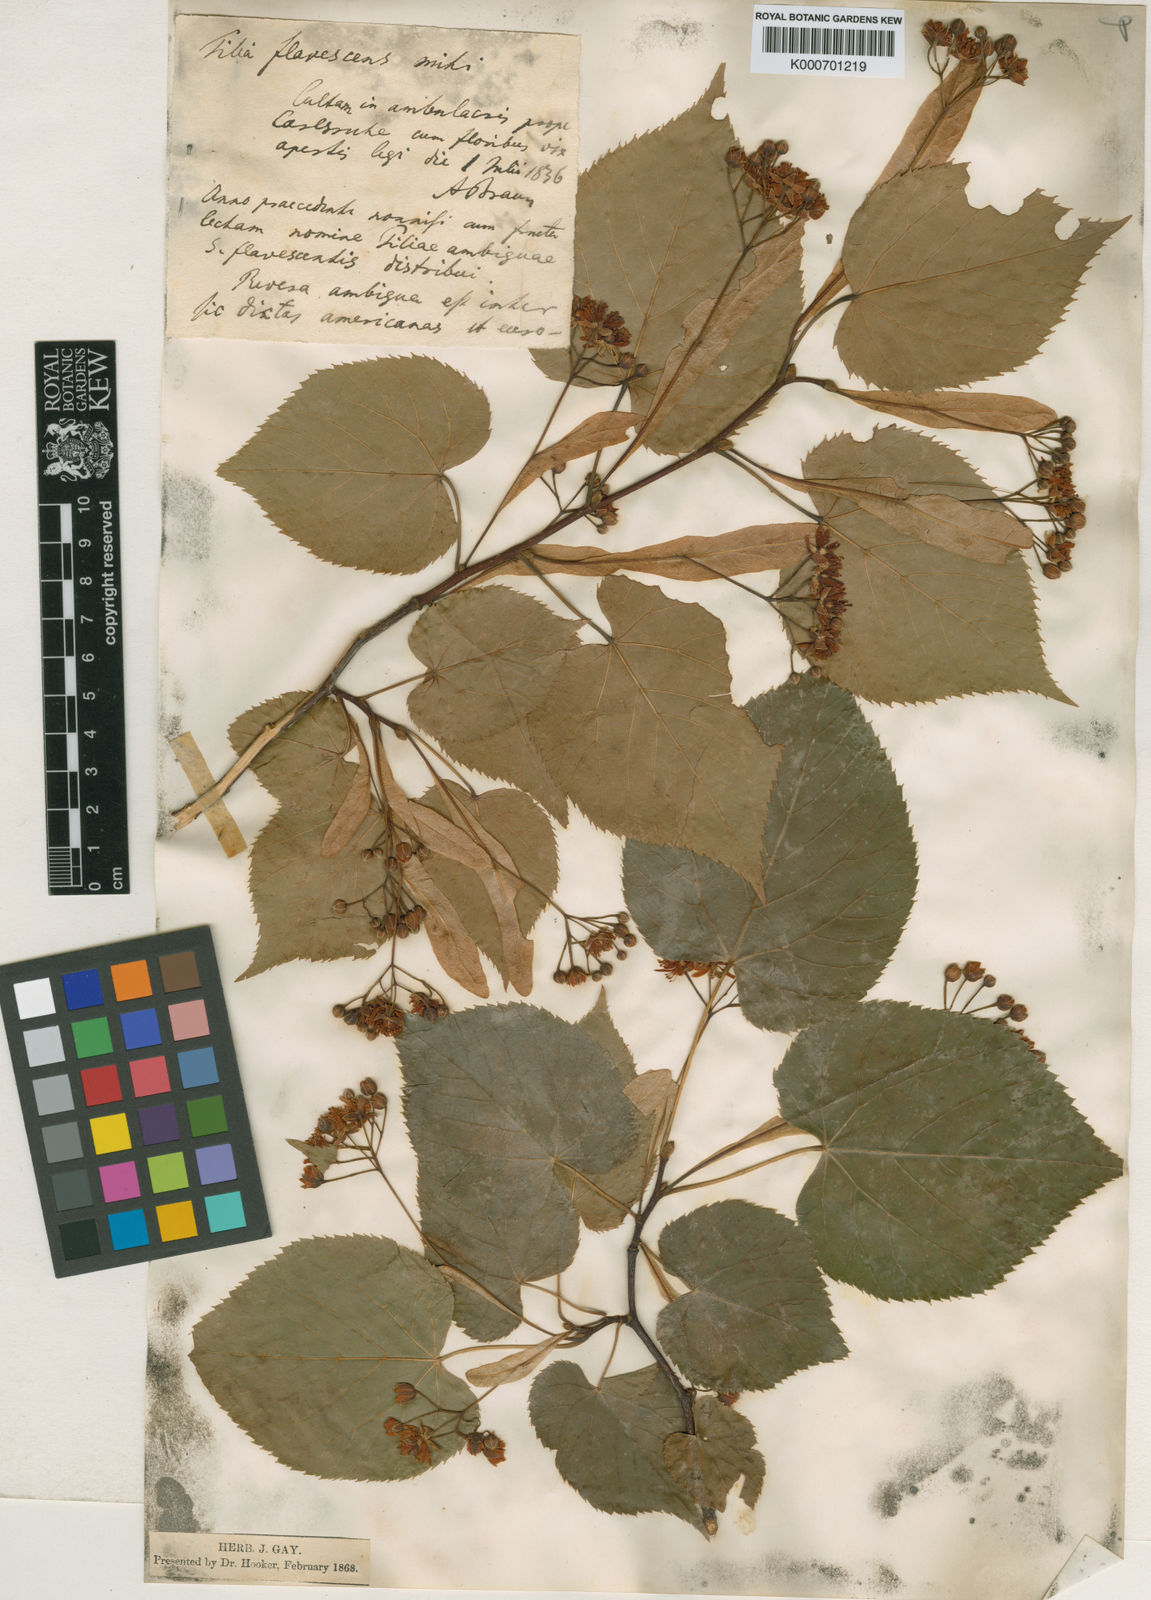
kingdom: Plantae
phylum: Tracheophyta
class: Magnoliopsida
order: Malvales
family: Malvaceae
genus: Tilia
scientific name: Tilia americana
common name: Basswood
